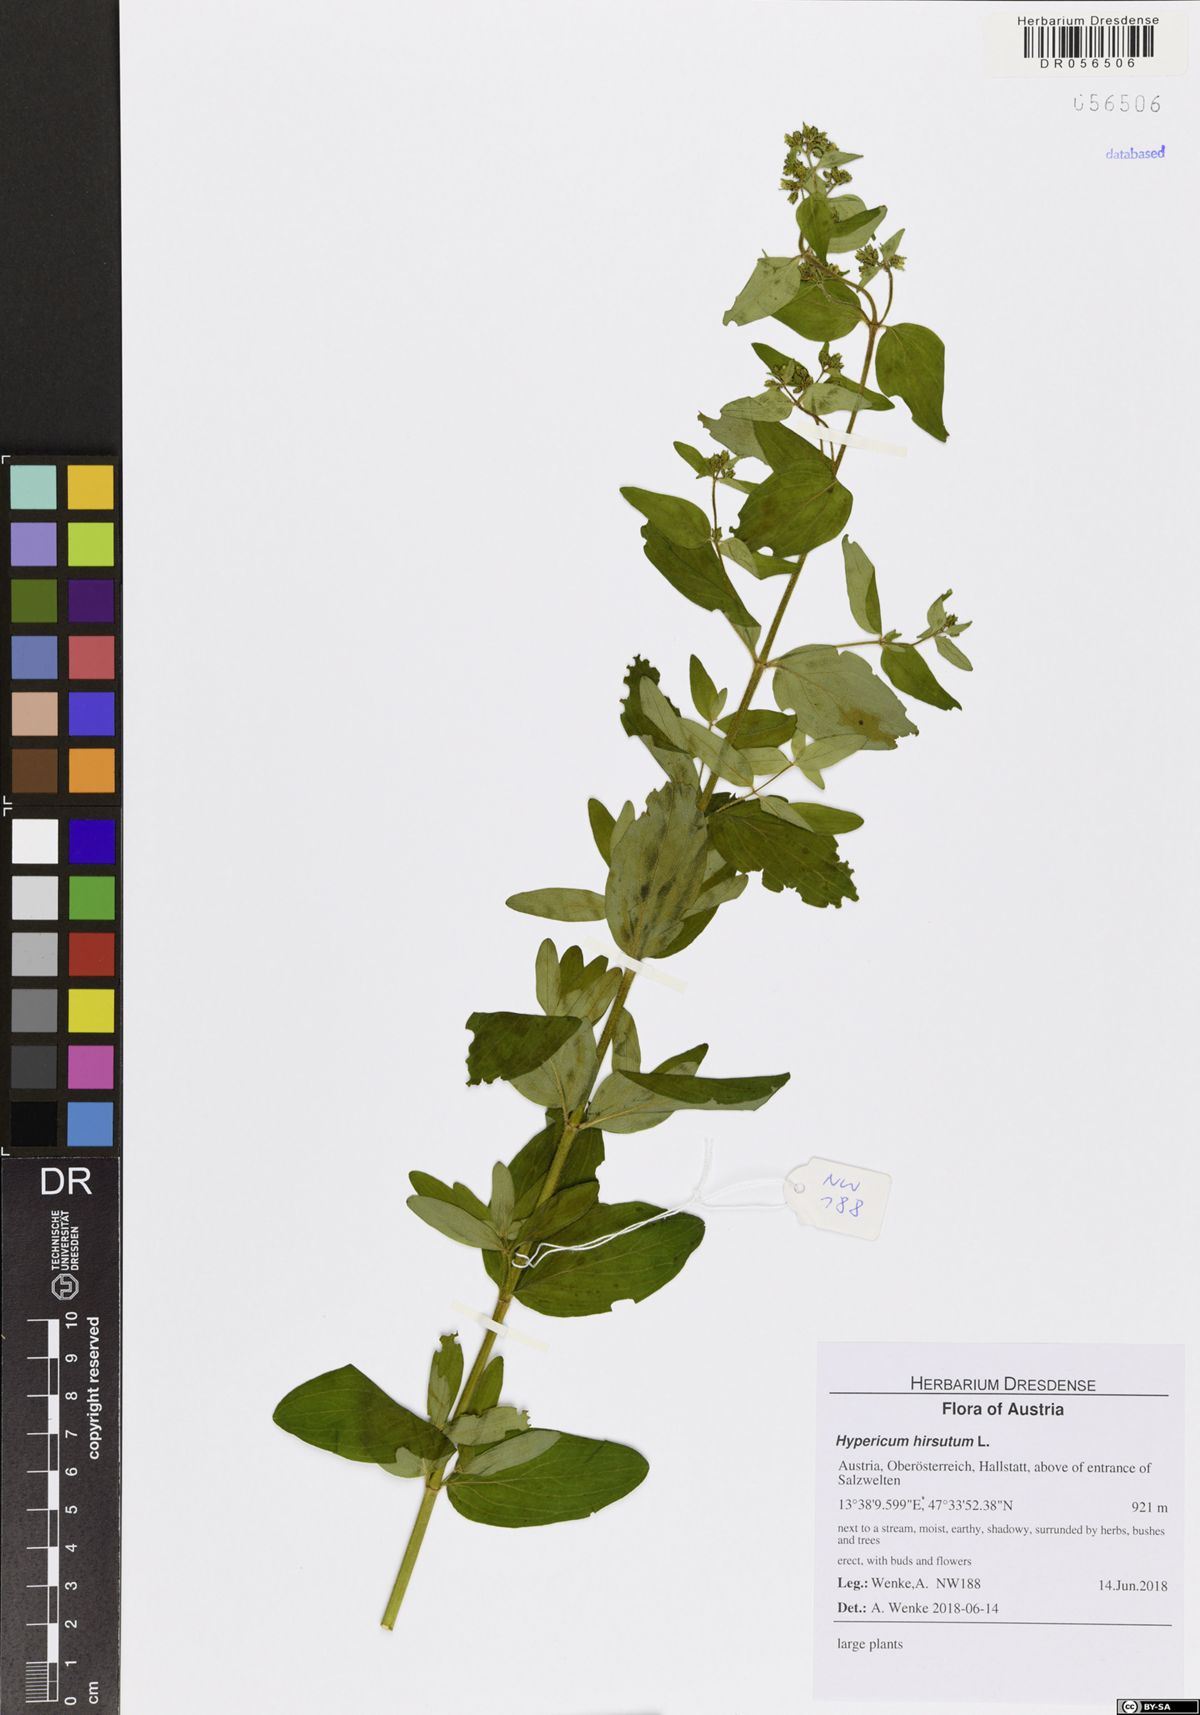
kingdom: Plantae
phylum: Tracheophyta
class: Magnoliopsida
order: Malpighiales
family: Hypericaceae
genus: Hypericum
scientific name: Hypericum hirsutum
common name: Hairy st. john's-wort
